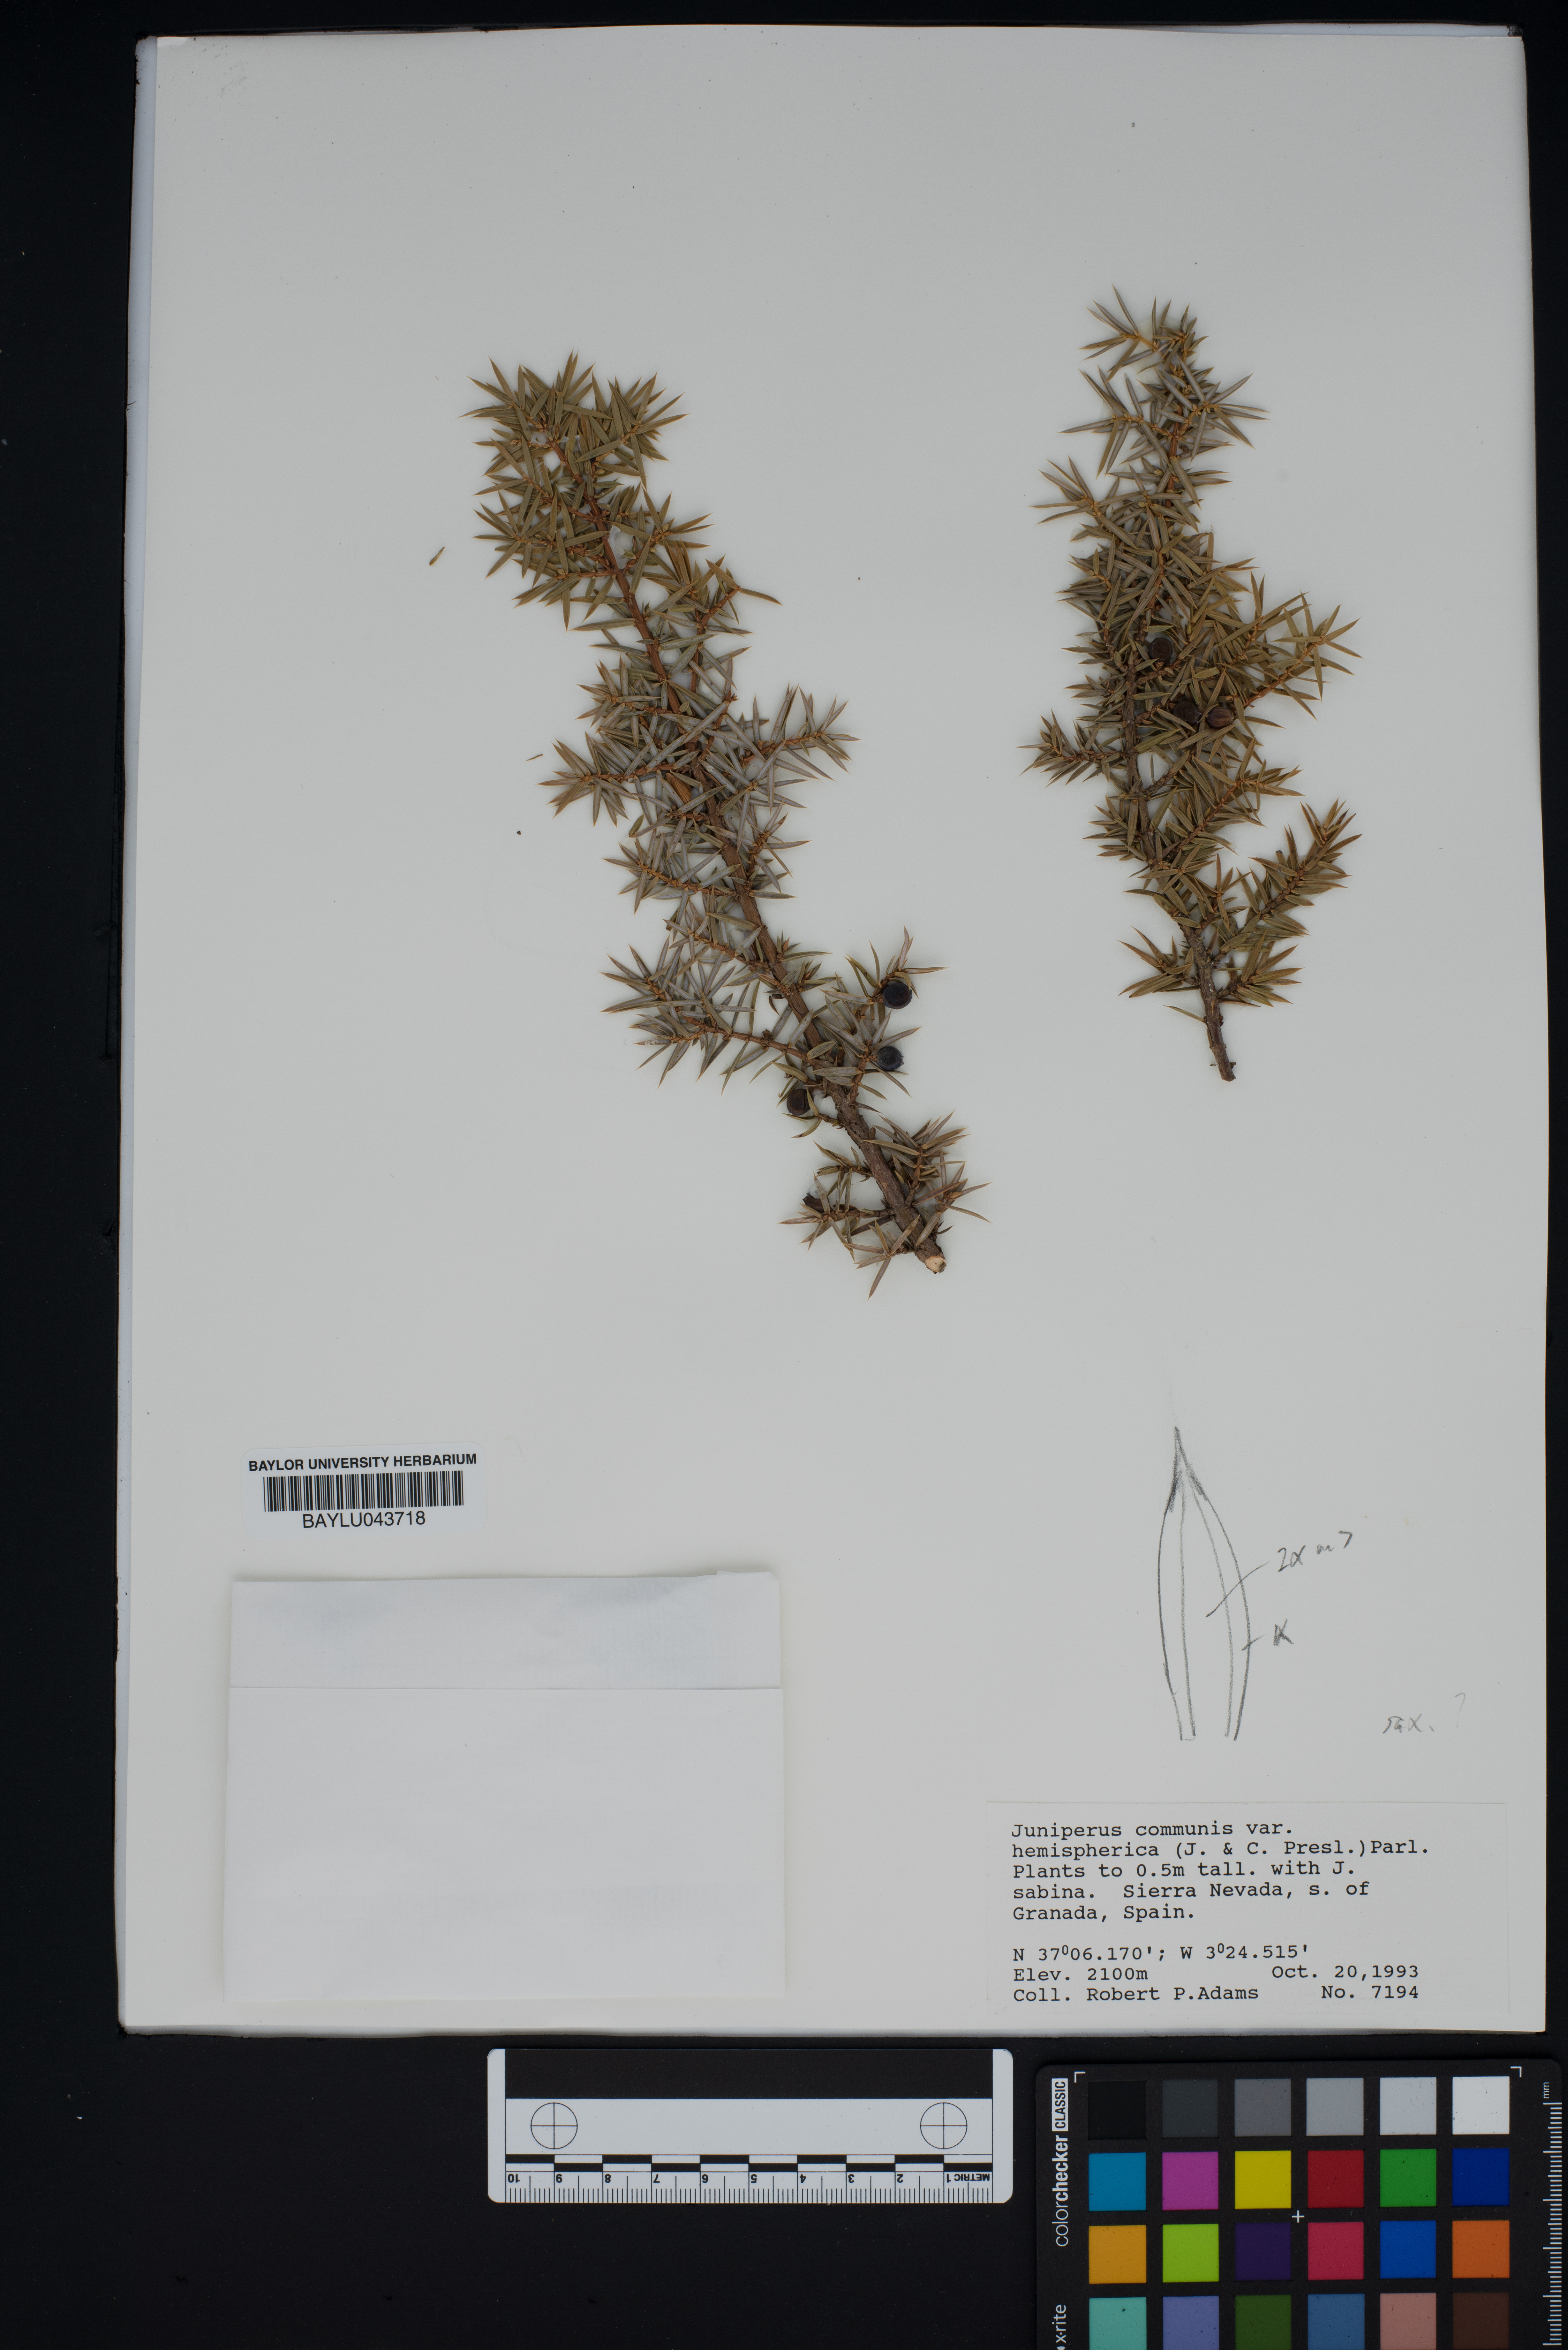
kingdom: Plantae
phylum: Tracheophyta
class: Pinopsida
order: Pinales
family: Cupressaceae
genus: Juniperus
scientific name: Juniperus communis
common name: Common juniper
